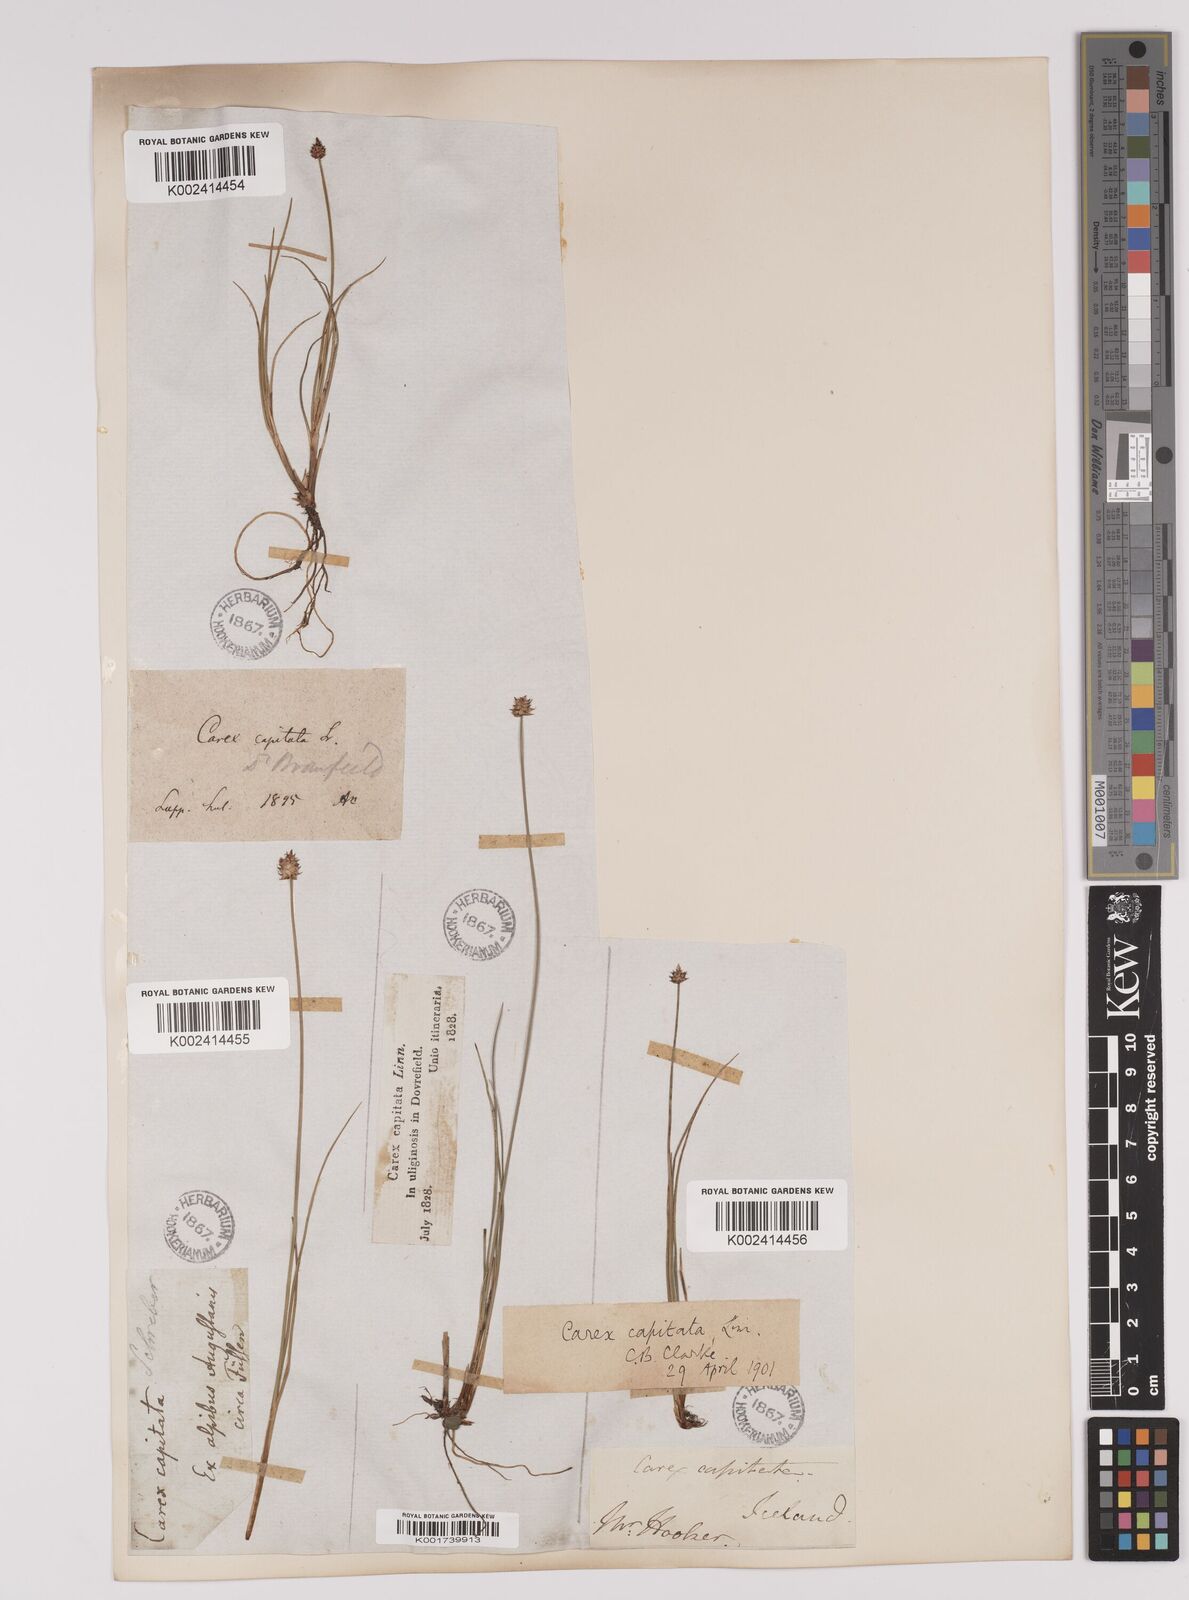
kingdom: Plantae
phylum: Tracheophyta
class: Liliopsida
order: Poales
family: Cyperaceae
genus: Carex
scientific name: Carex capitata
